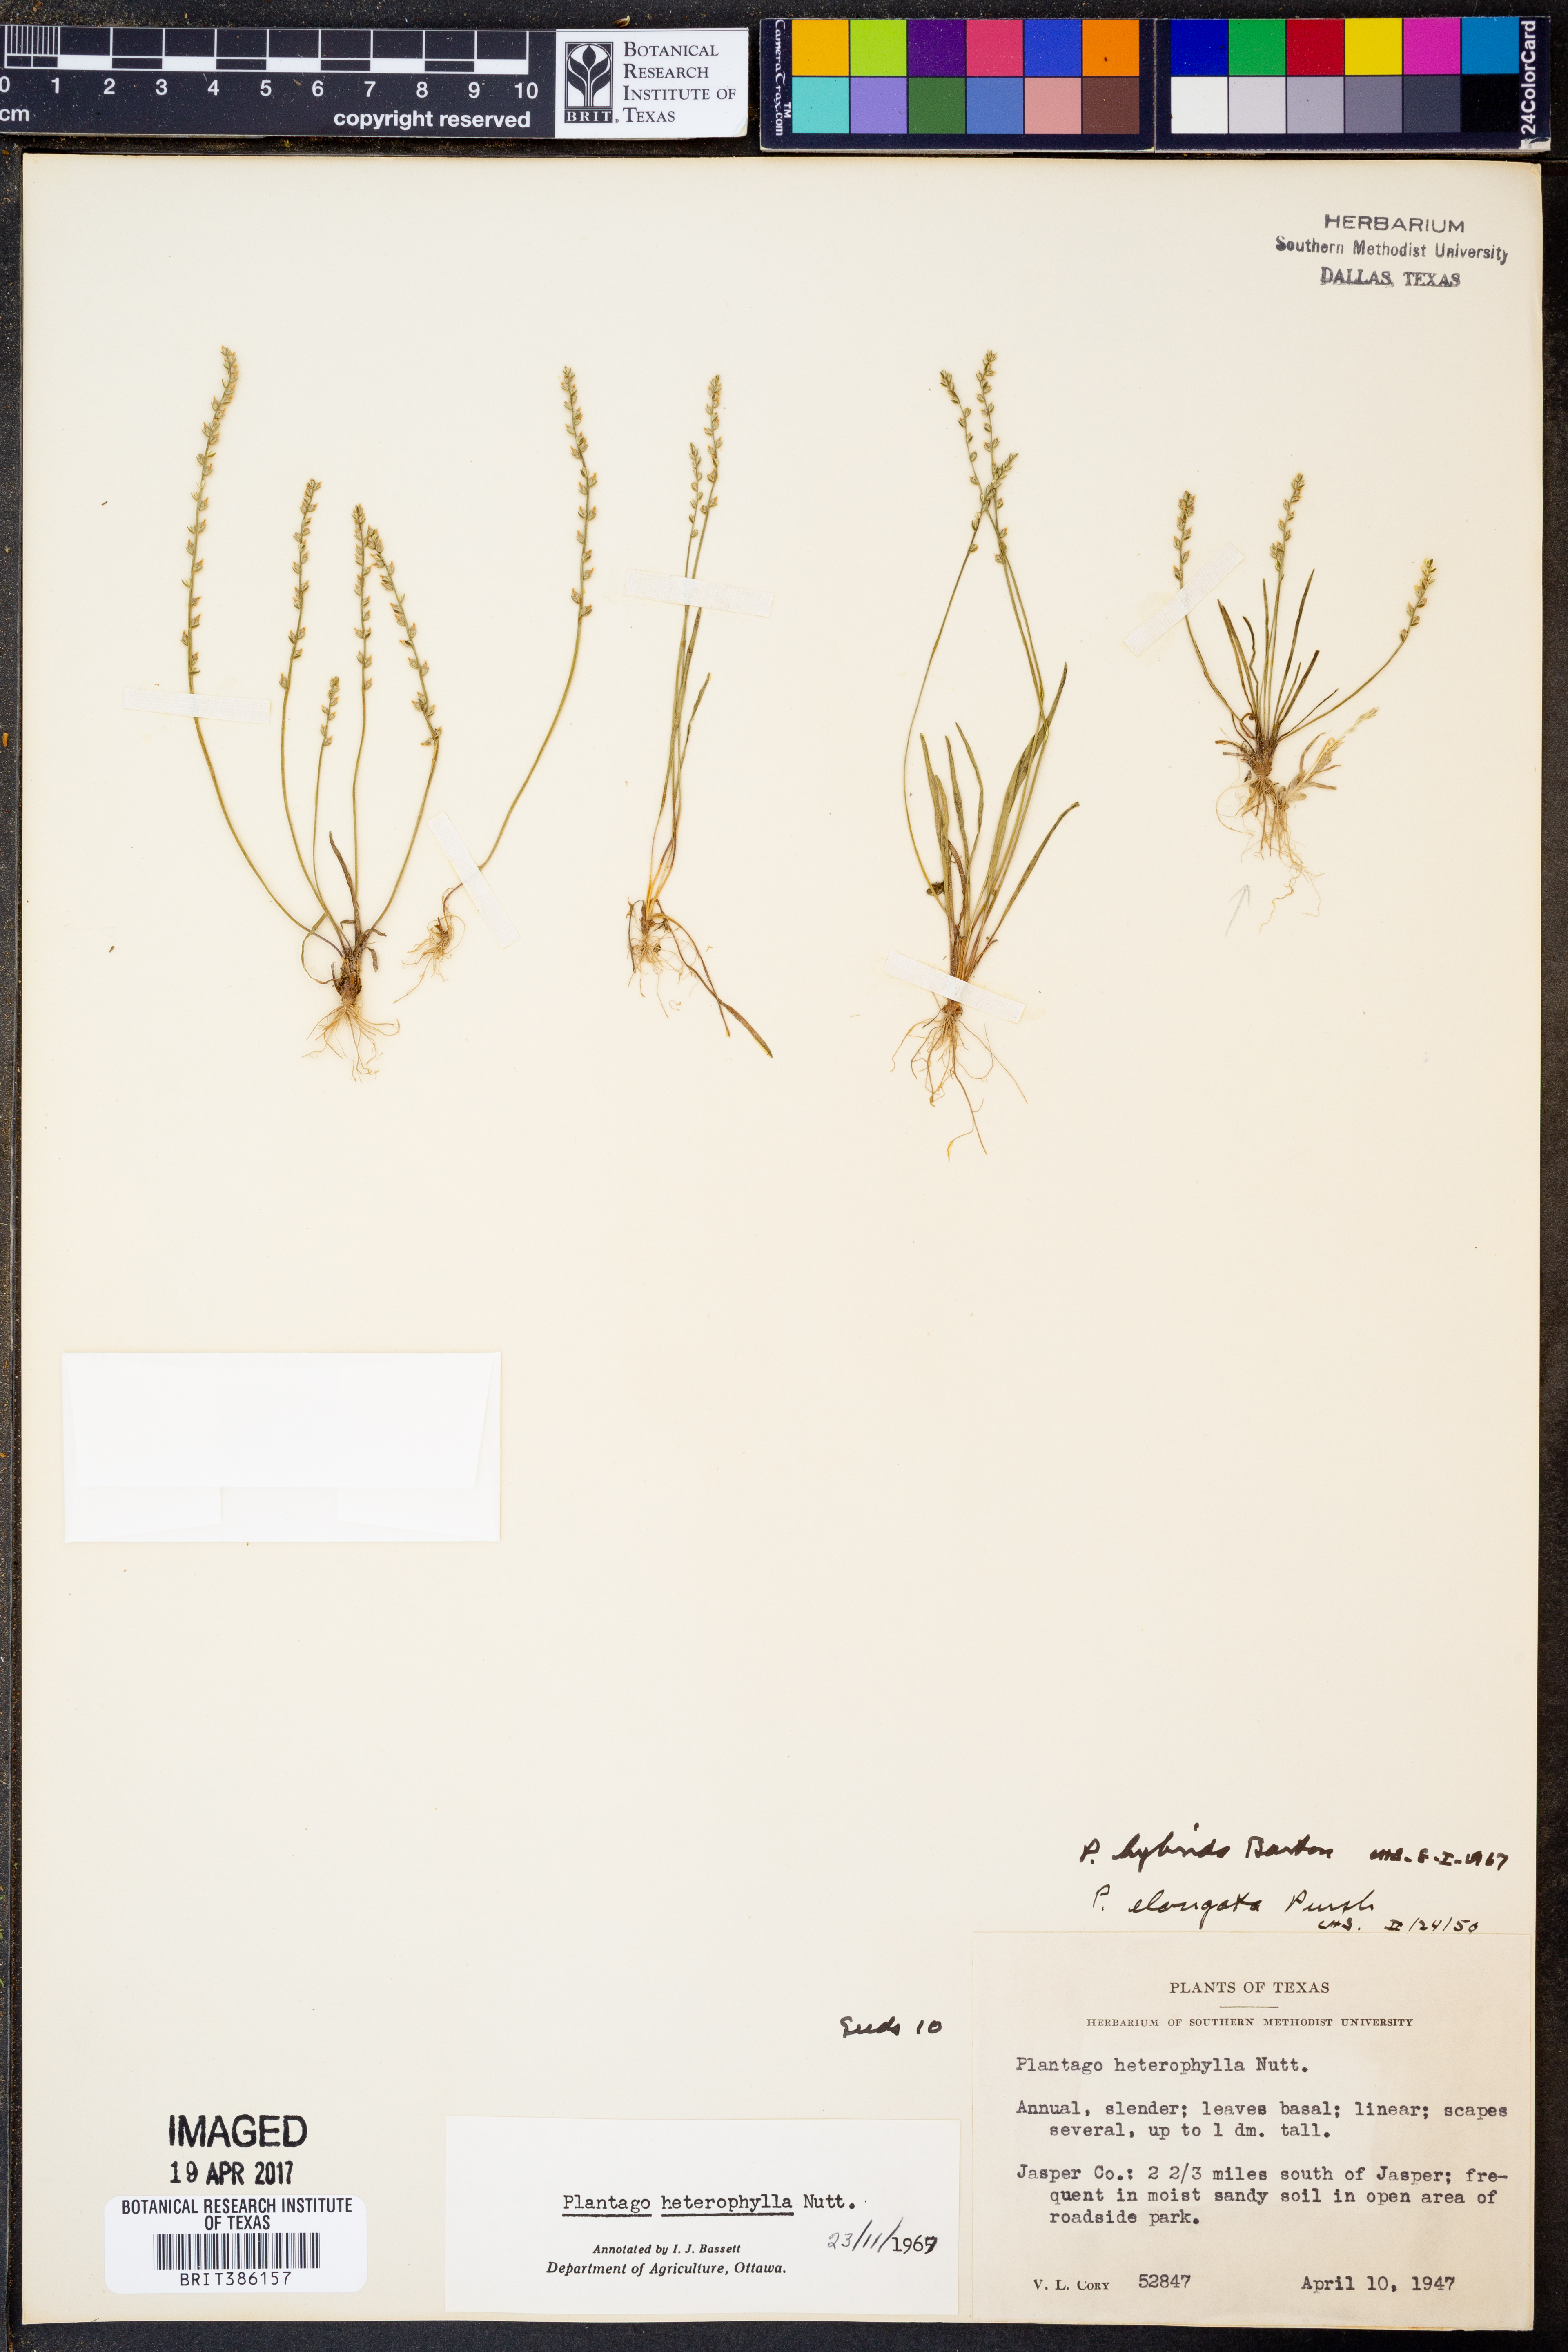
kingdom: Plantae
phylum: Tracheophyta
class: Magnoliopsida
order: Lamiales
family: Plantaginaceae
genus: Plantago
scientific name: Plantago heterophylla
